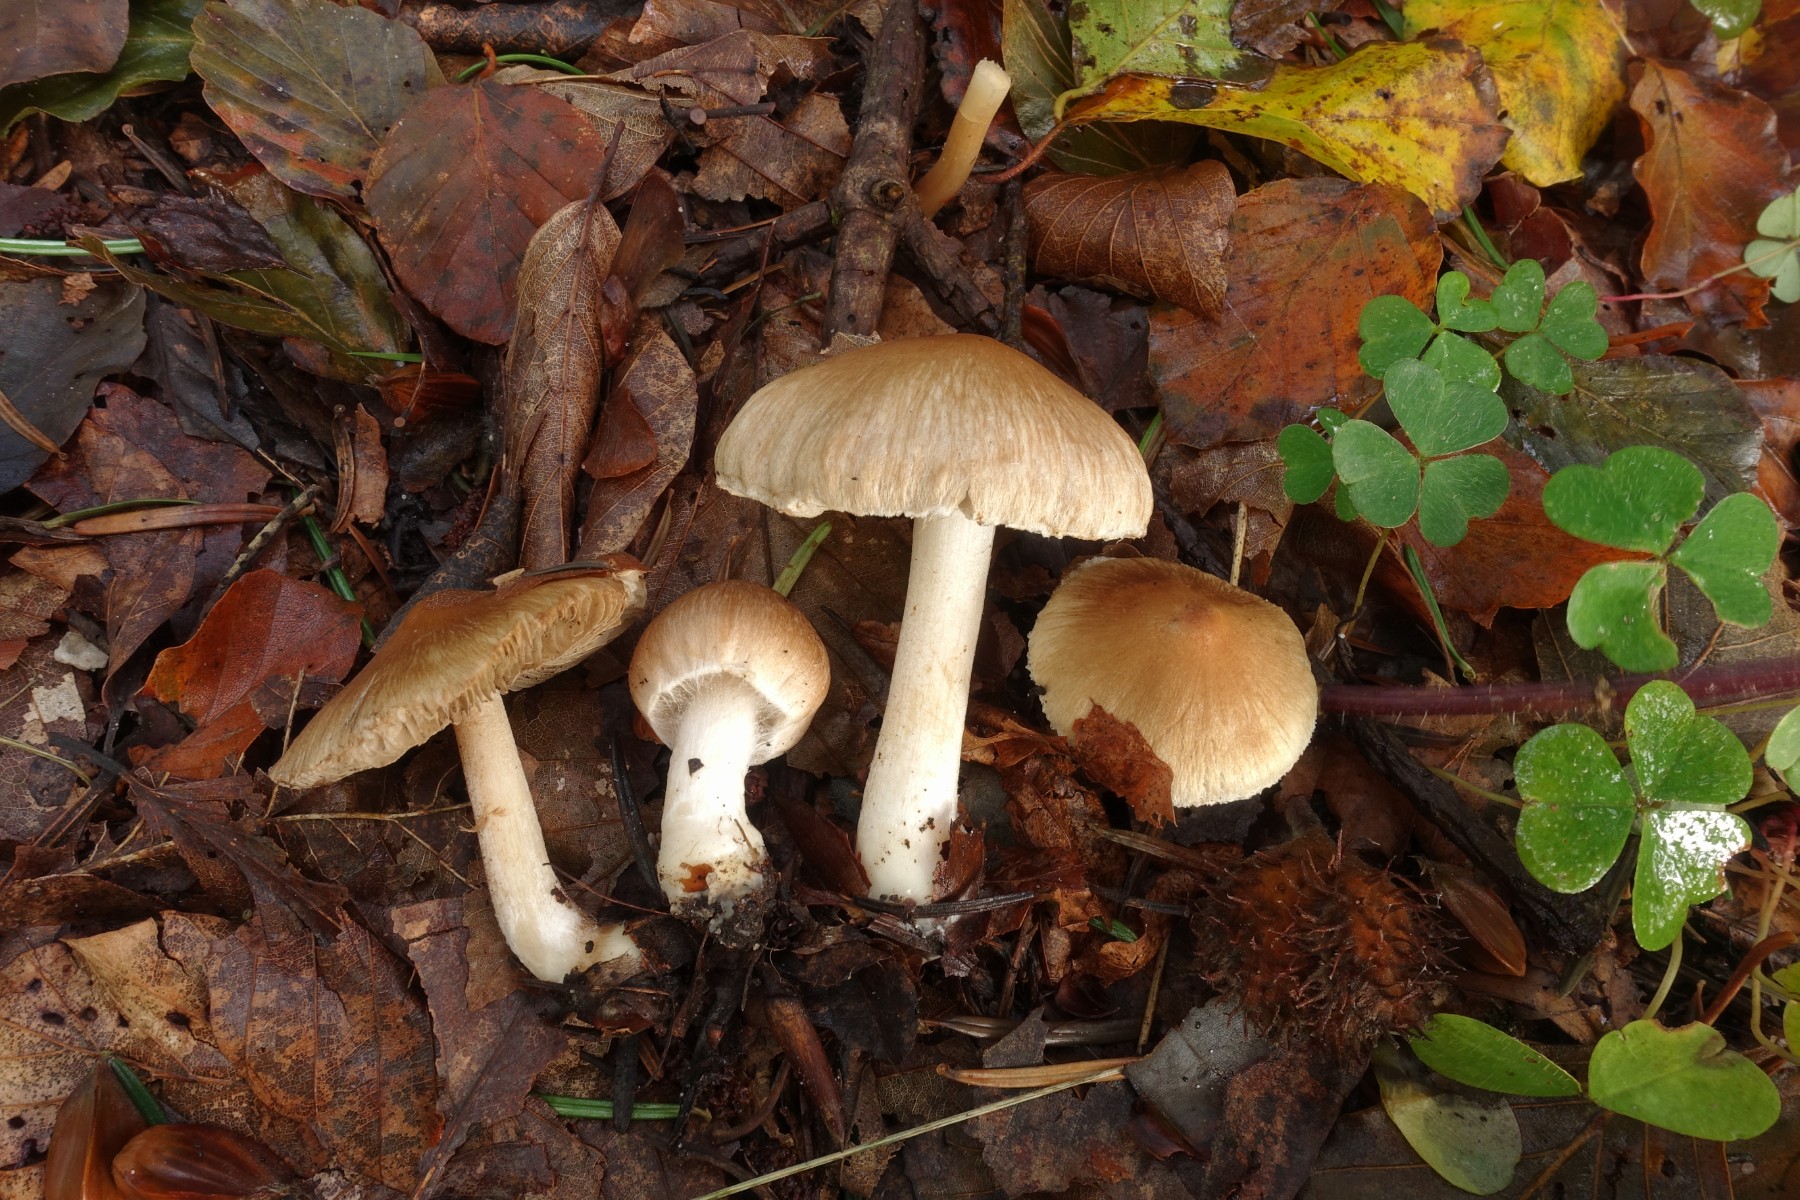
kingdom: Fungi
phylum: Basidiomycota
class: Agaricomycetes
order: Agaricales
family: Inocybaceae
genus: Inocybe
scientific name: Inocybe
